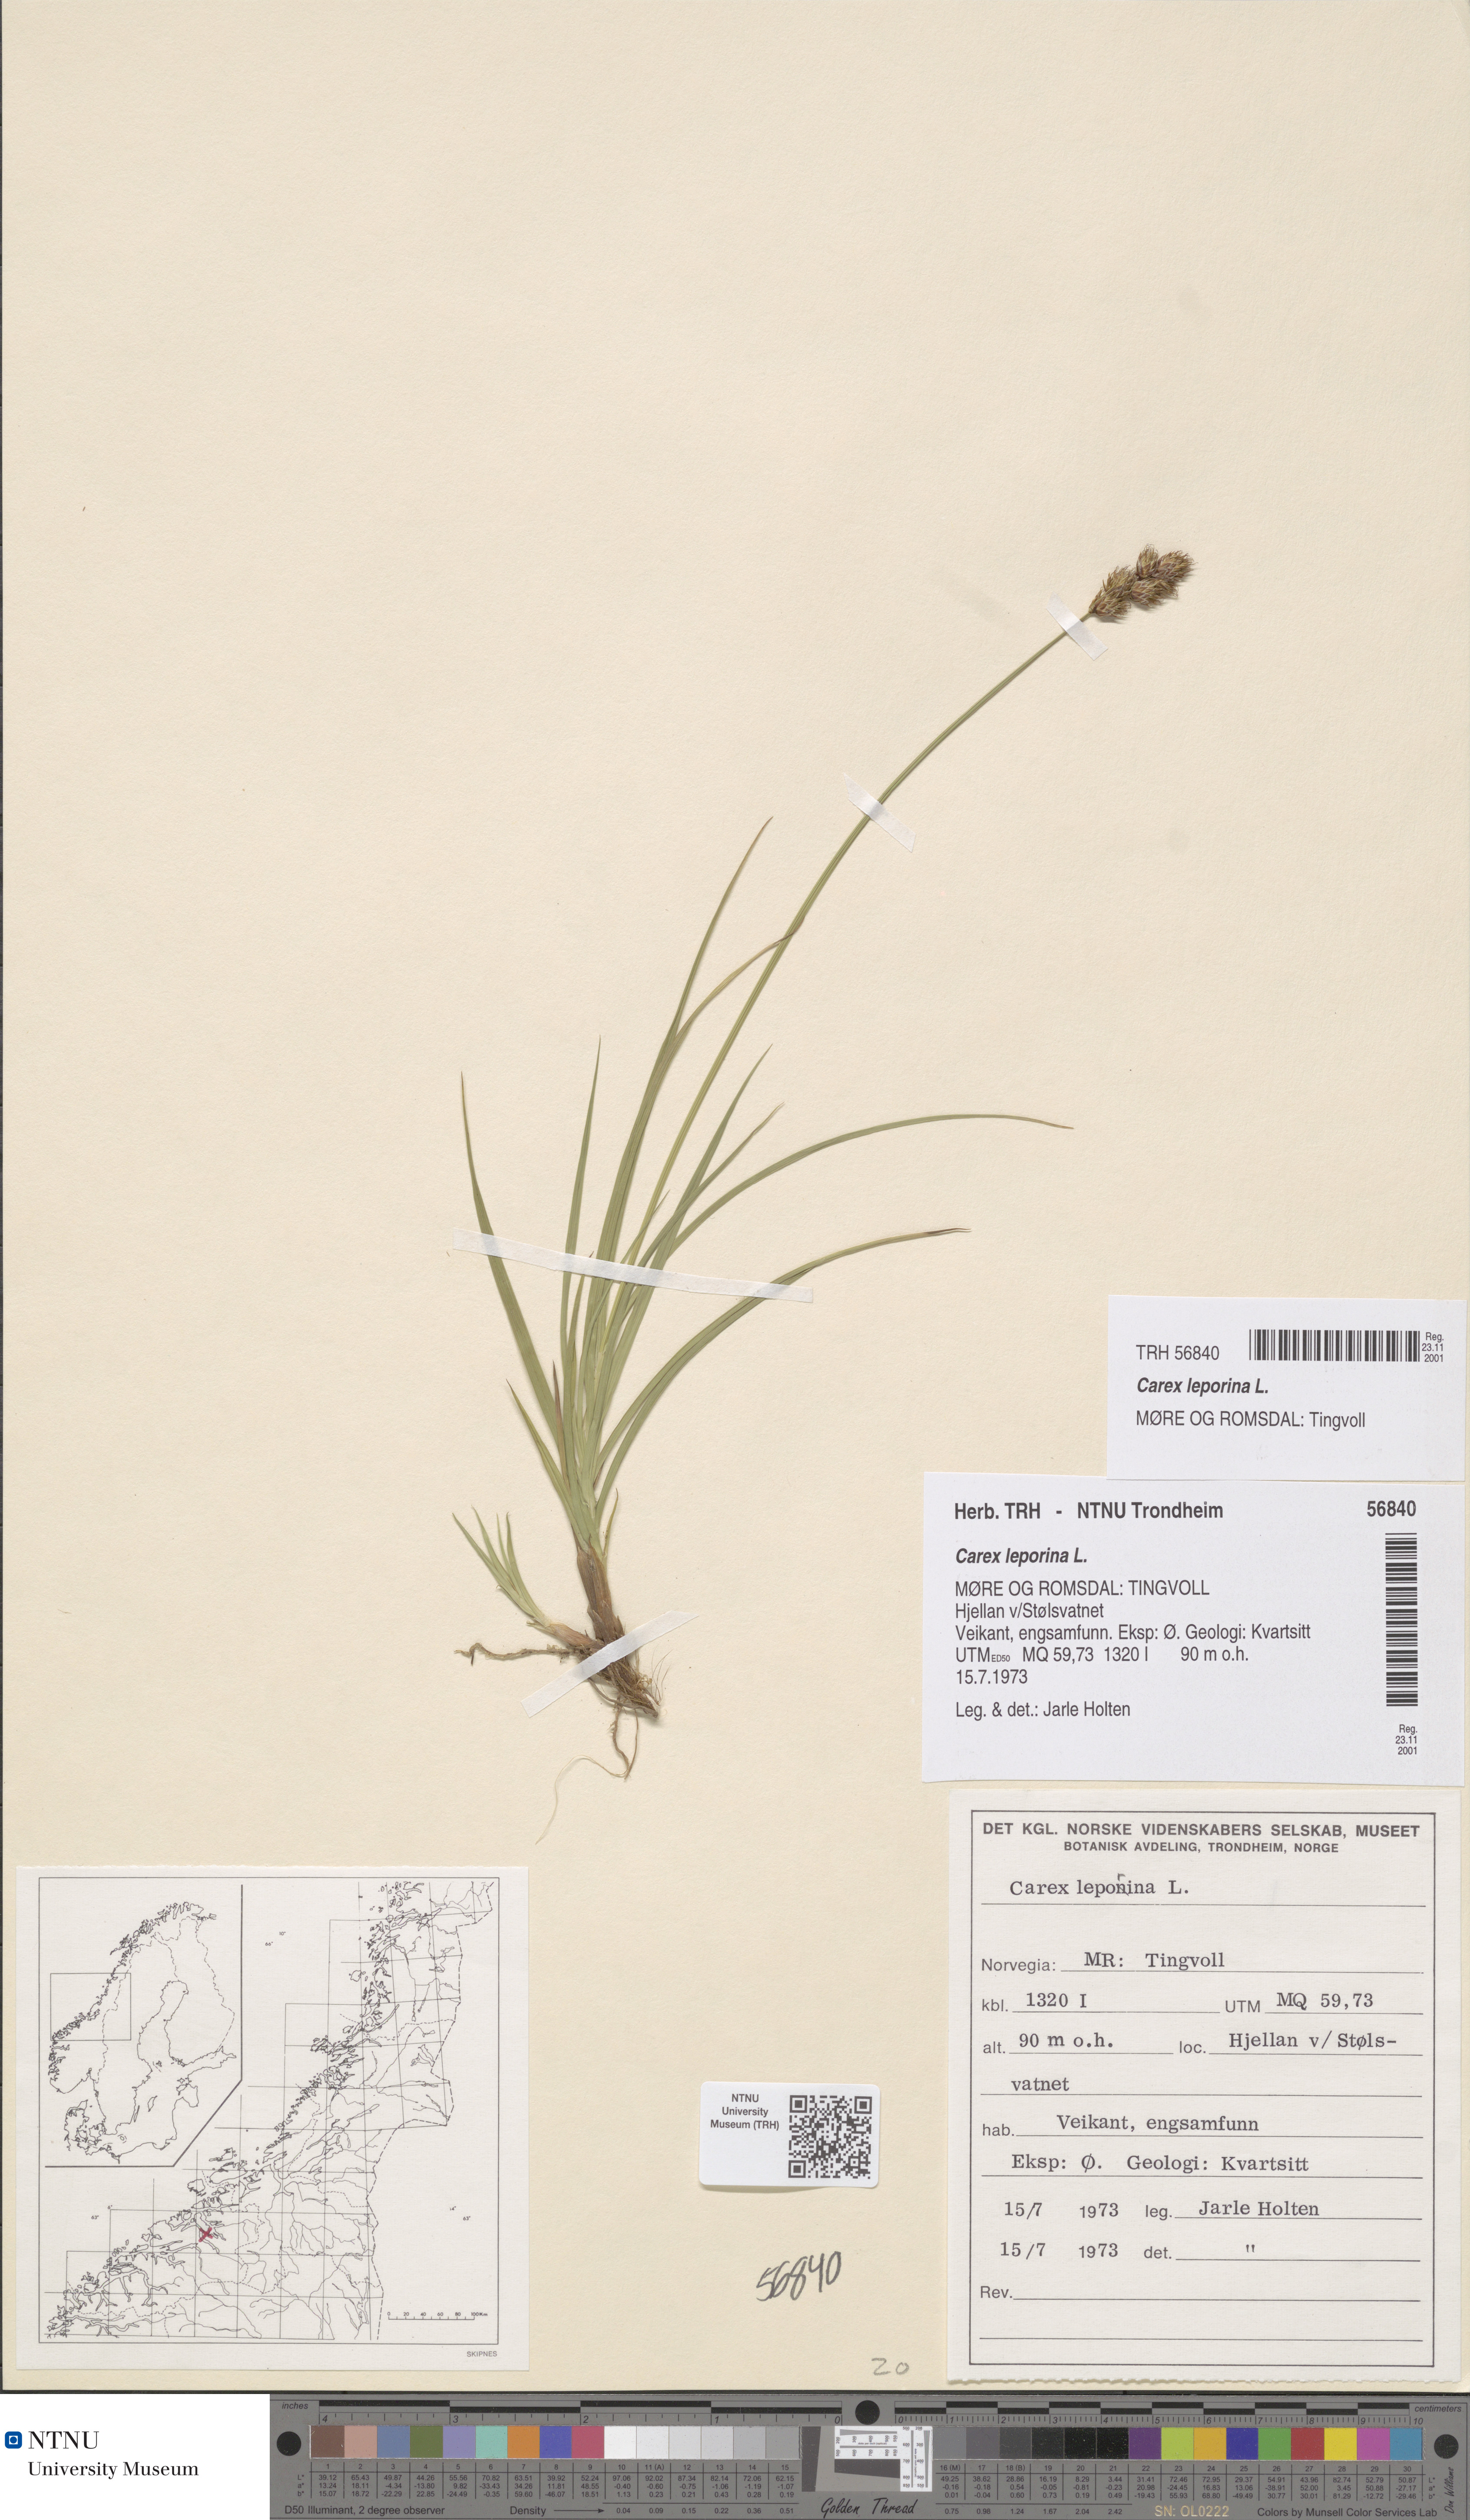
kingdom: Plantae
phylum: Tracheophyta
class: Liliopsida
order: Poales
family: Cyperaceae
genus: Carex
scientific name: Carex leporina
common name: Oval sedge
